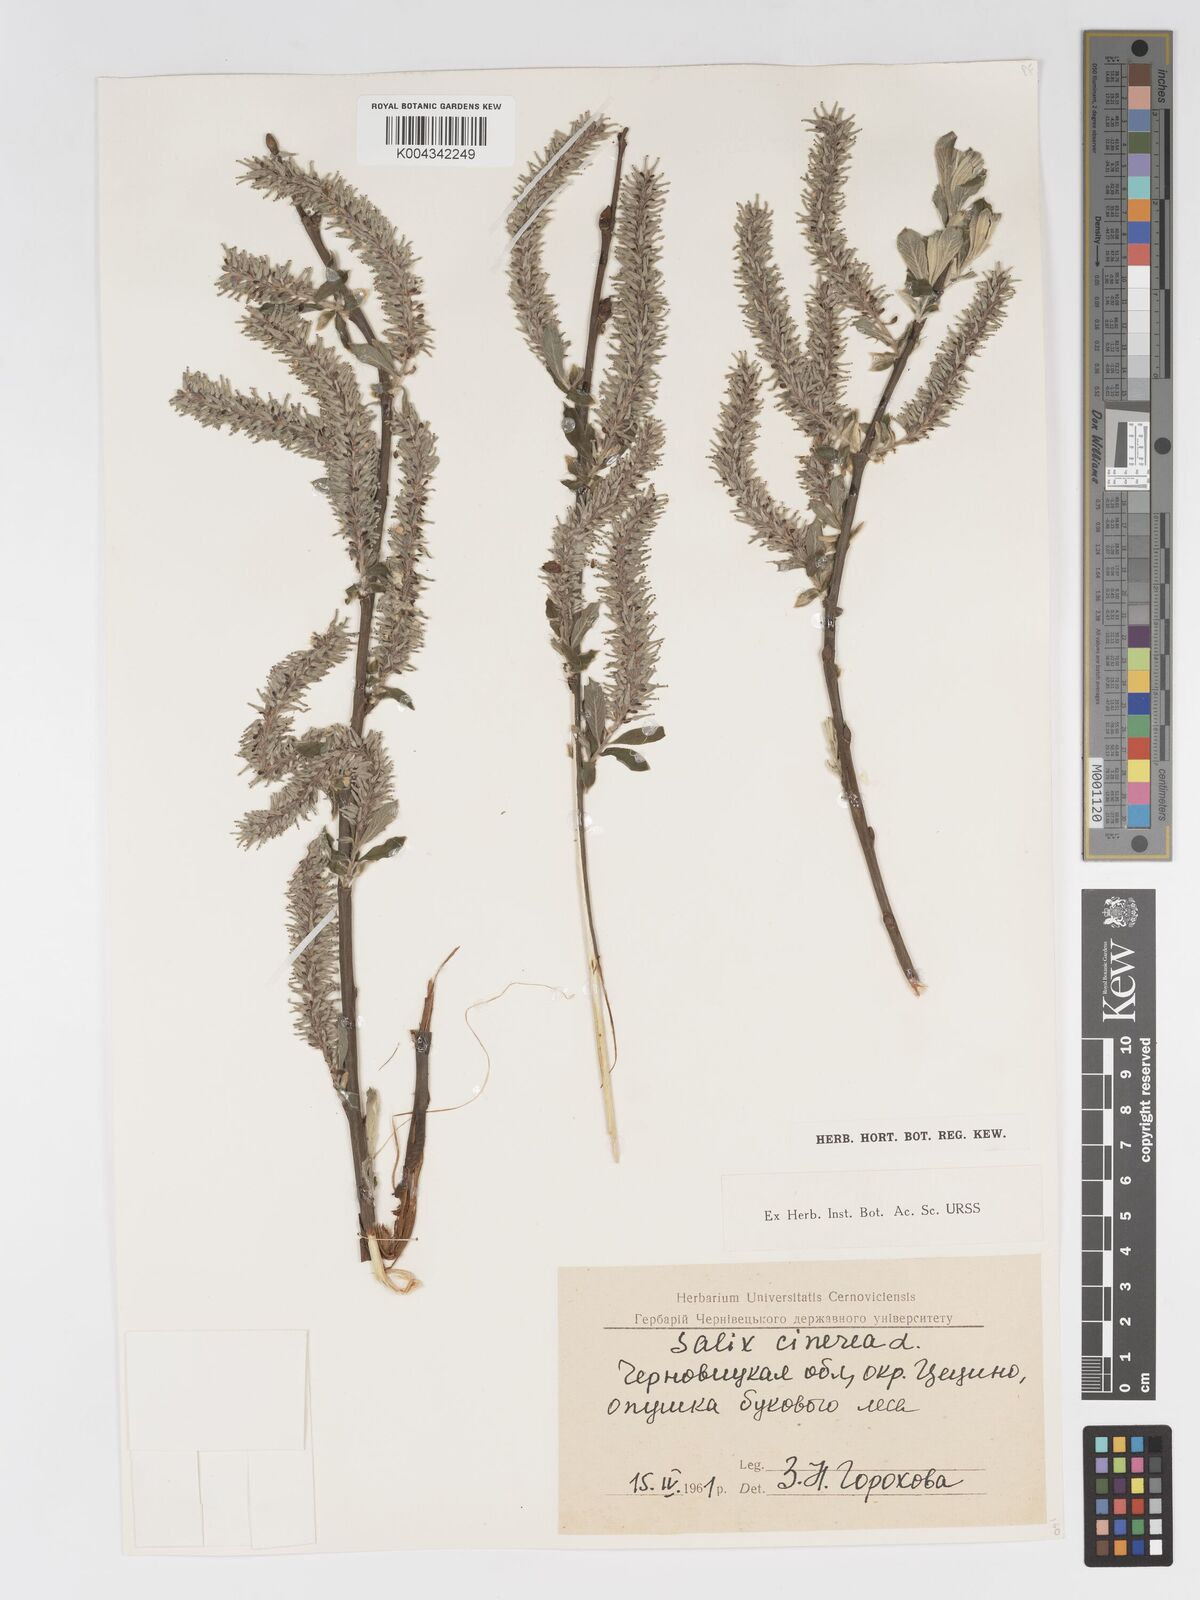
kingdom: Plantae
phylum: Tracheophyta
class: Magnoliopsida
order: Malpighiales
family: Salicaceae
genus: Salix
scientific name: Salix
